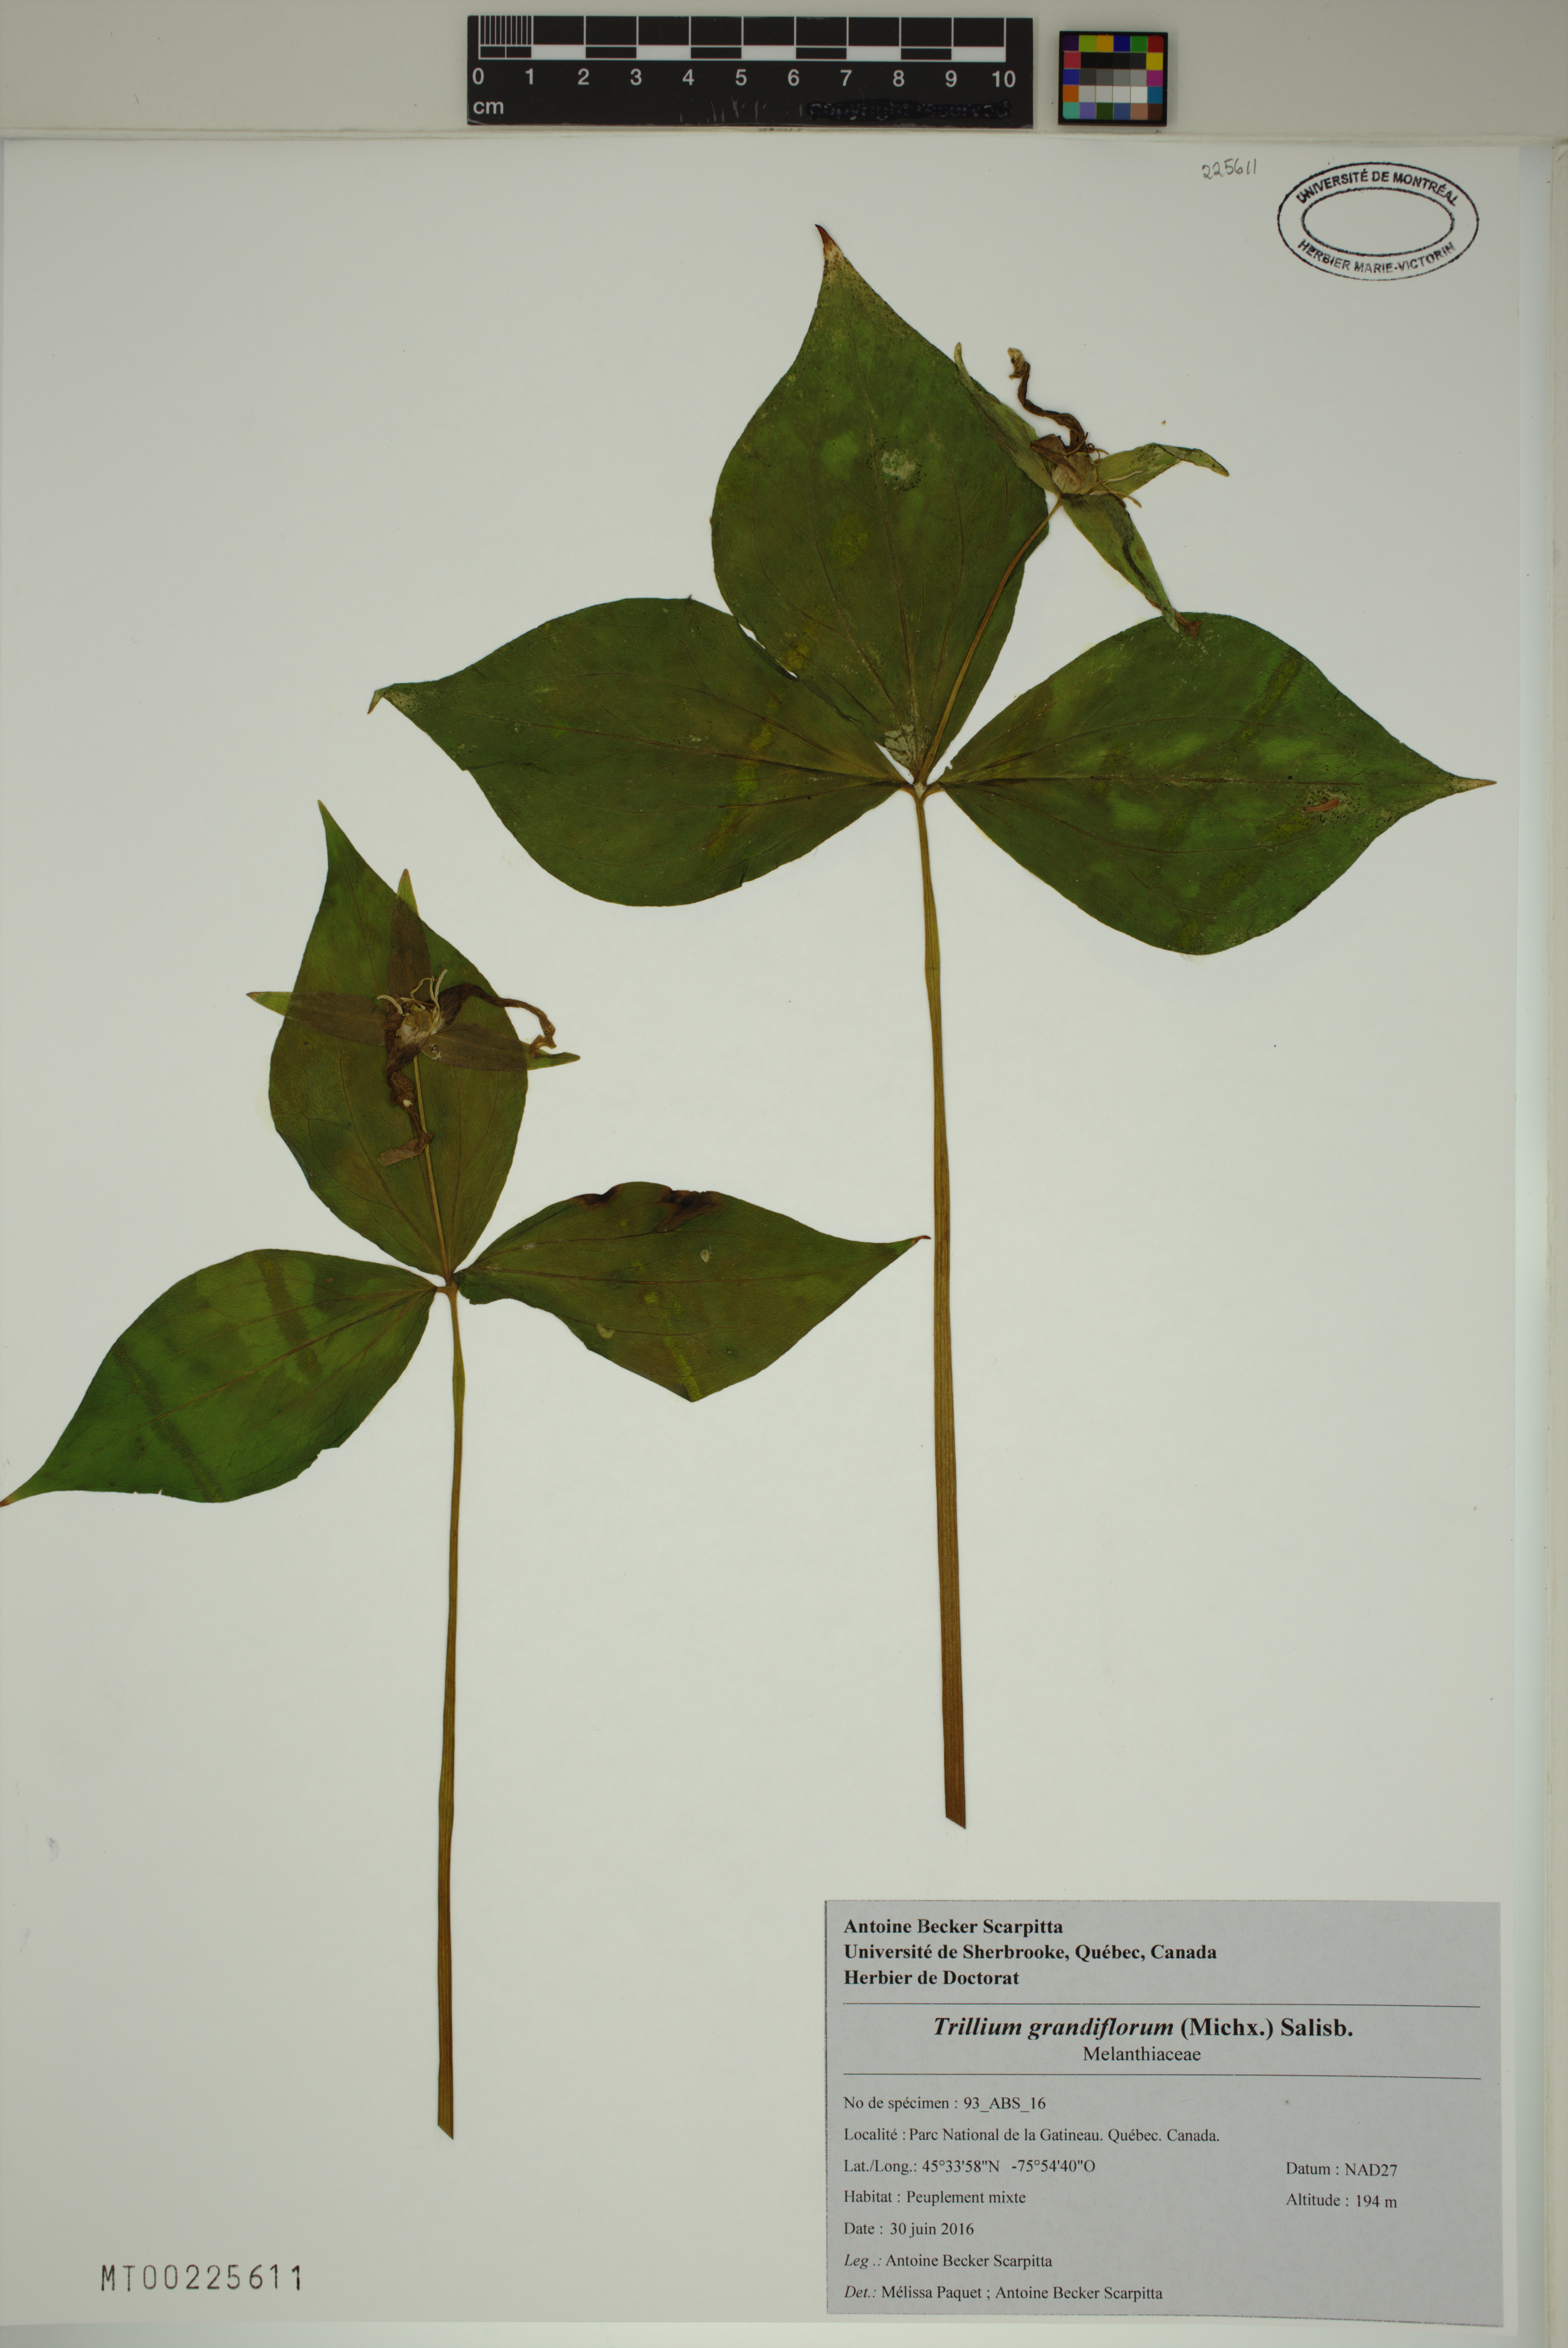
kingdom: Plantae
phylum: Tracheophyta
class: Liliopsida
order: Liliales
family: Melanthiaceae
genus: Trillium
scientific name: Trillium grandiflorum
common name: Great white trillium
